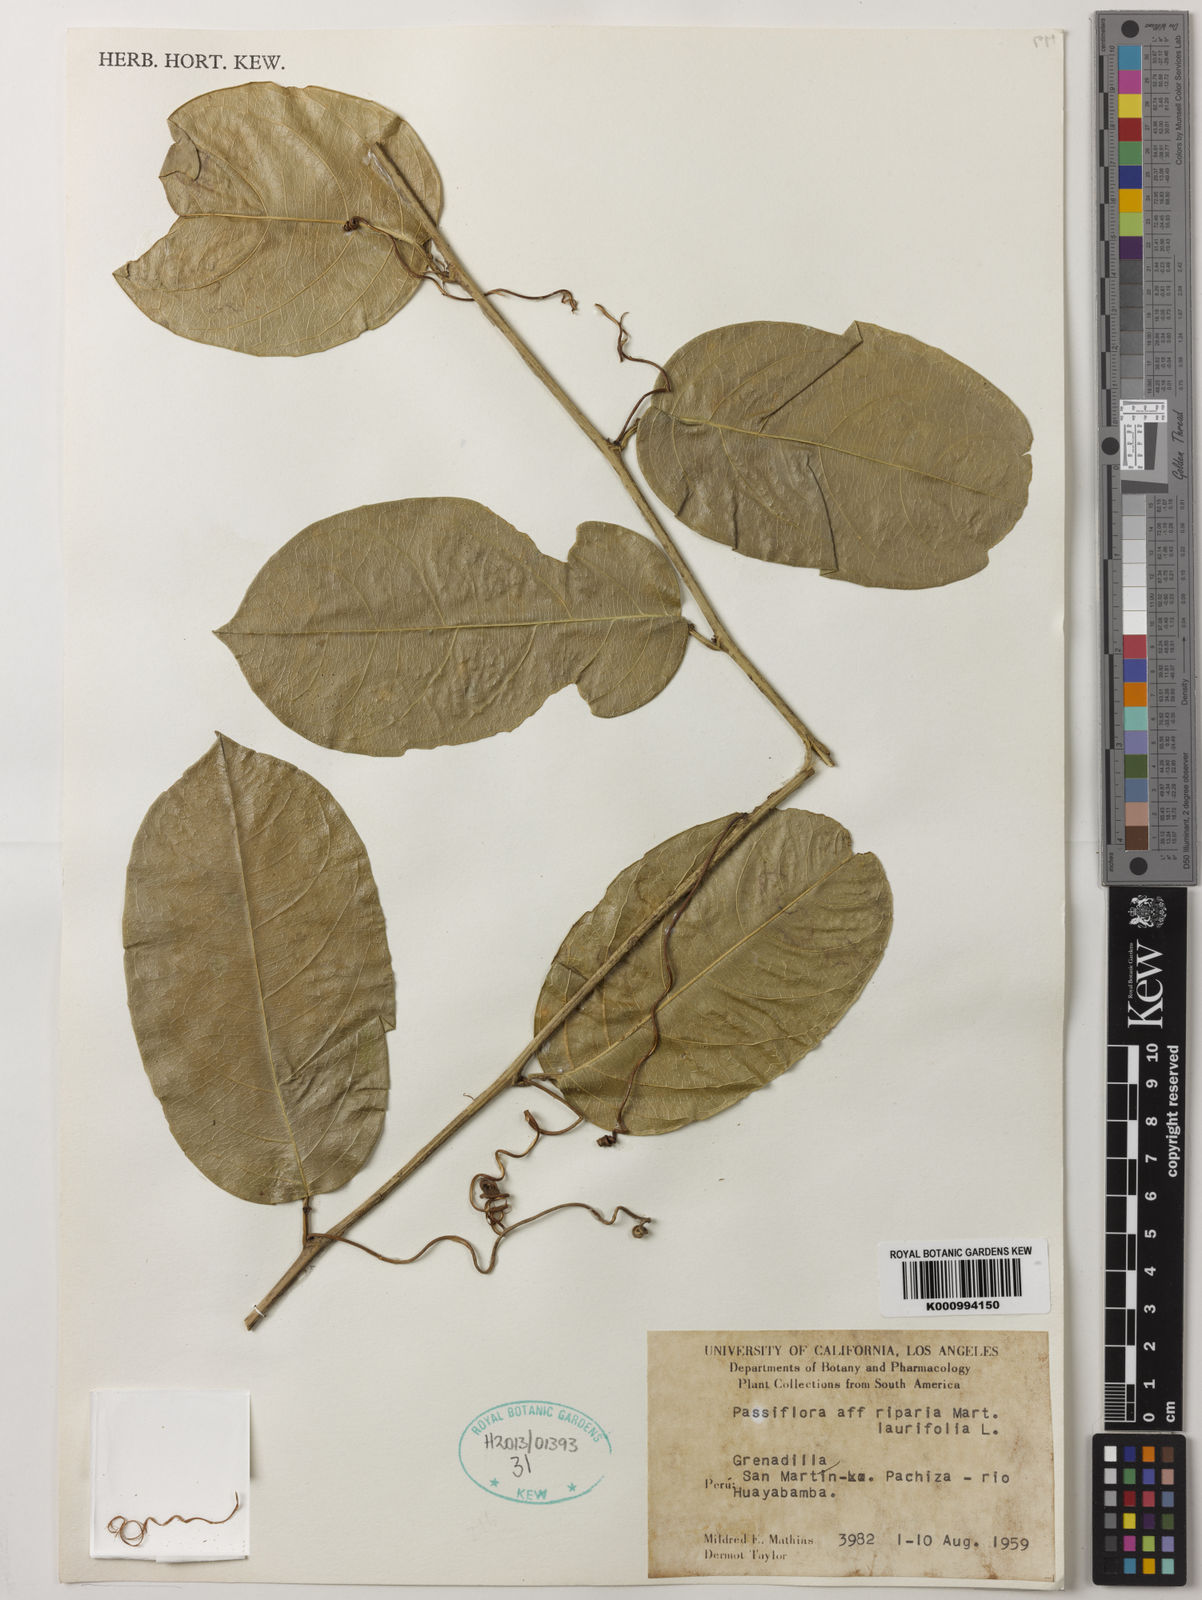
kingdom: Plantae
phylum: Tracheophyta
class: Magnoliopsida
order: Malpighiales
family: Passifloraceae
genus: Passiflora
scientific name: Passiflora
